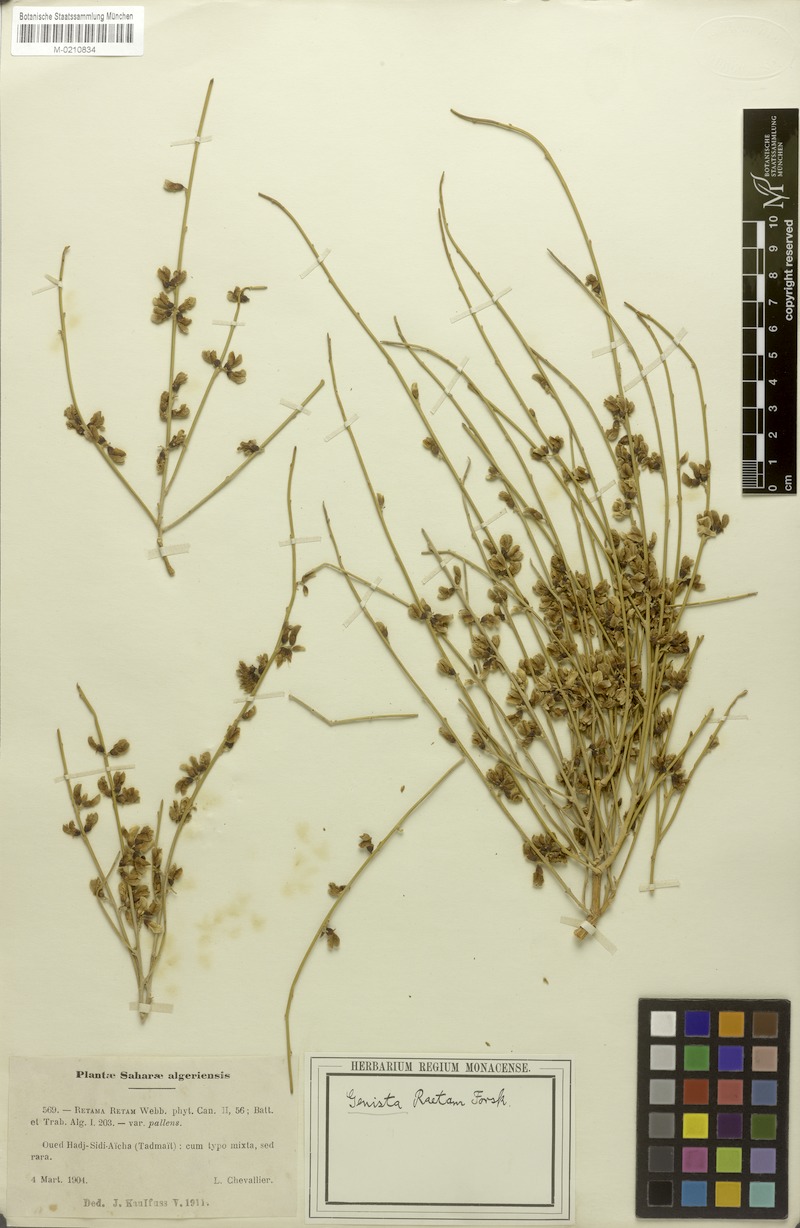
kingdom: Plantae
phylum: Tracheophyta
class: Magnoliopsida
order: Fabales
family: Fabaceae
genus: Retama
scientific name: Retama raetam
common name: Retem
